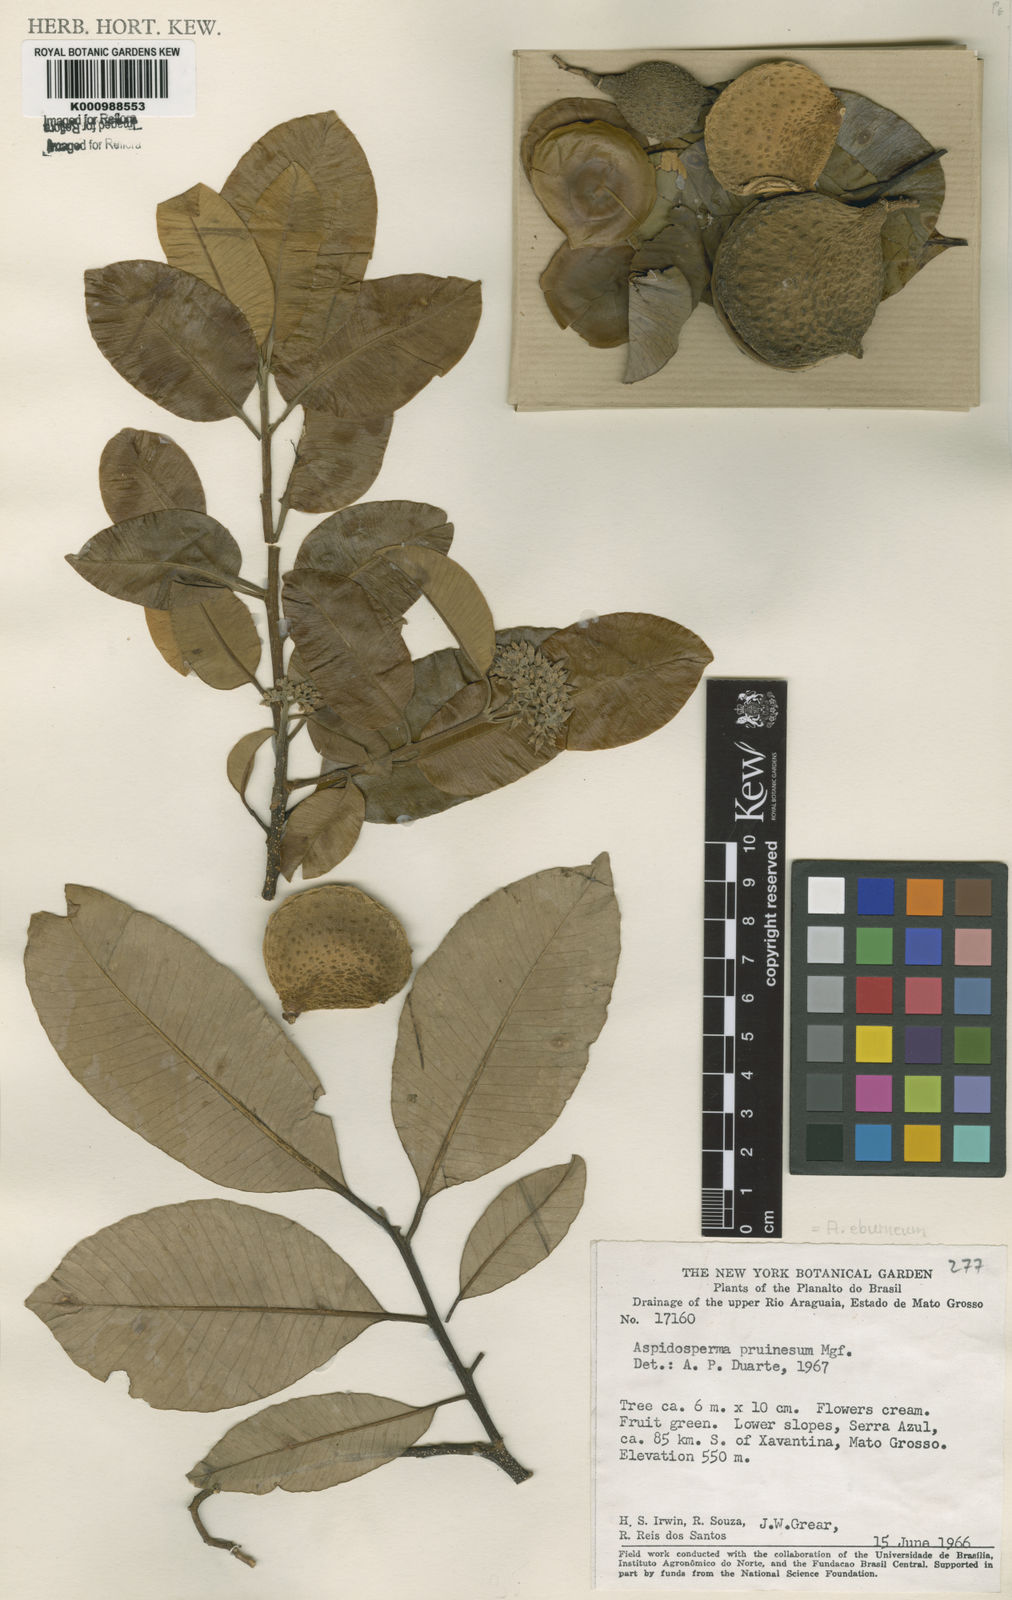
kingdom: Plantae
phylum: Tracheophyta
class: Magnoliopsida
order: Gentianales
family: Apocynaceae
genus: Aspidosperma
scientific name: Aspidosperma eburneum
